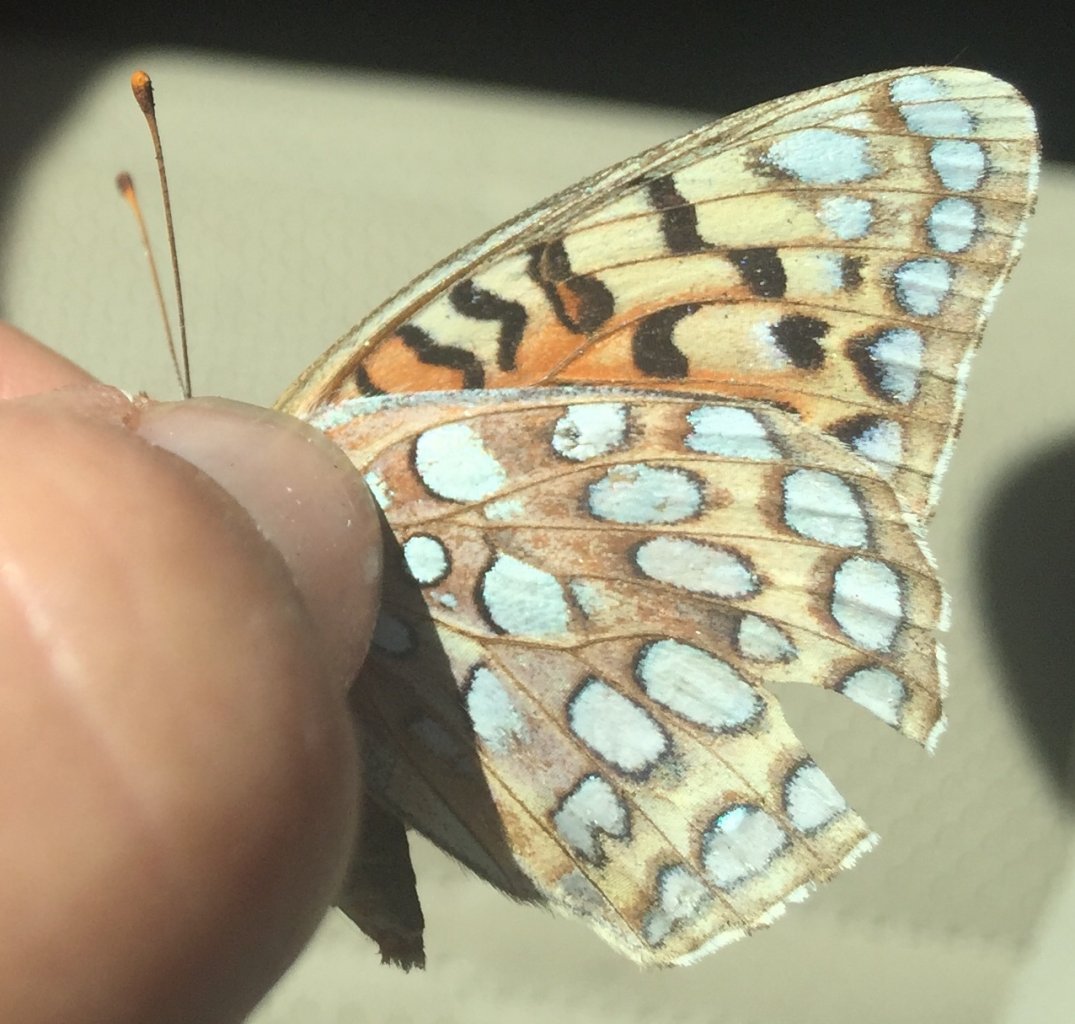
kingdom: Animalia
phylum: Arthropoda
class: Insecta
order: Lepidoptera
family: Nymphalidae
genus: Speyeria
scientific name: Speyeria coronis
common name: Coronis Fritillary
